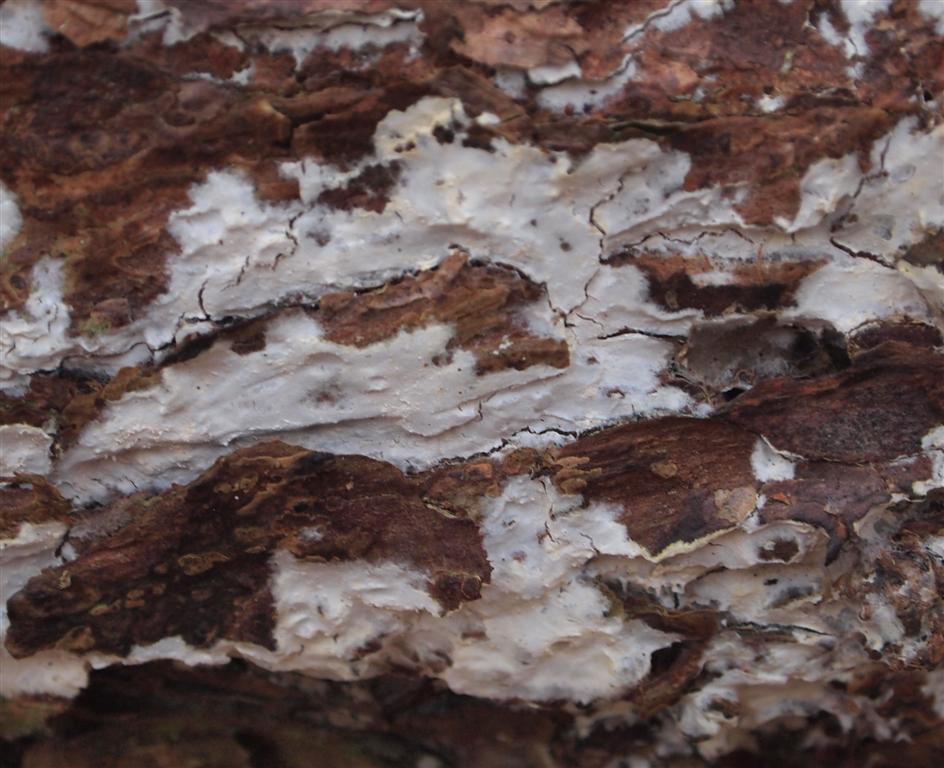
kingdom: Fungi
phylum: Basidiomycota
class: Agaricomycetes
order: Atheliales
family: Atheliaceae
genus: Leptosporomyces
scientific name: Leptosporomyces fuscostratus
